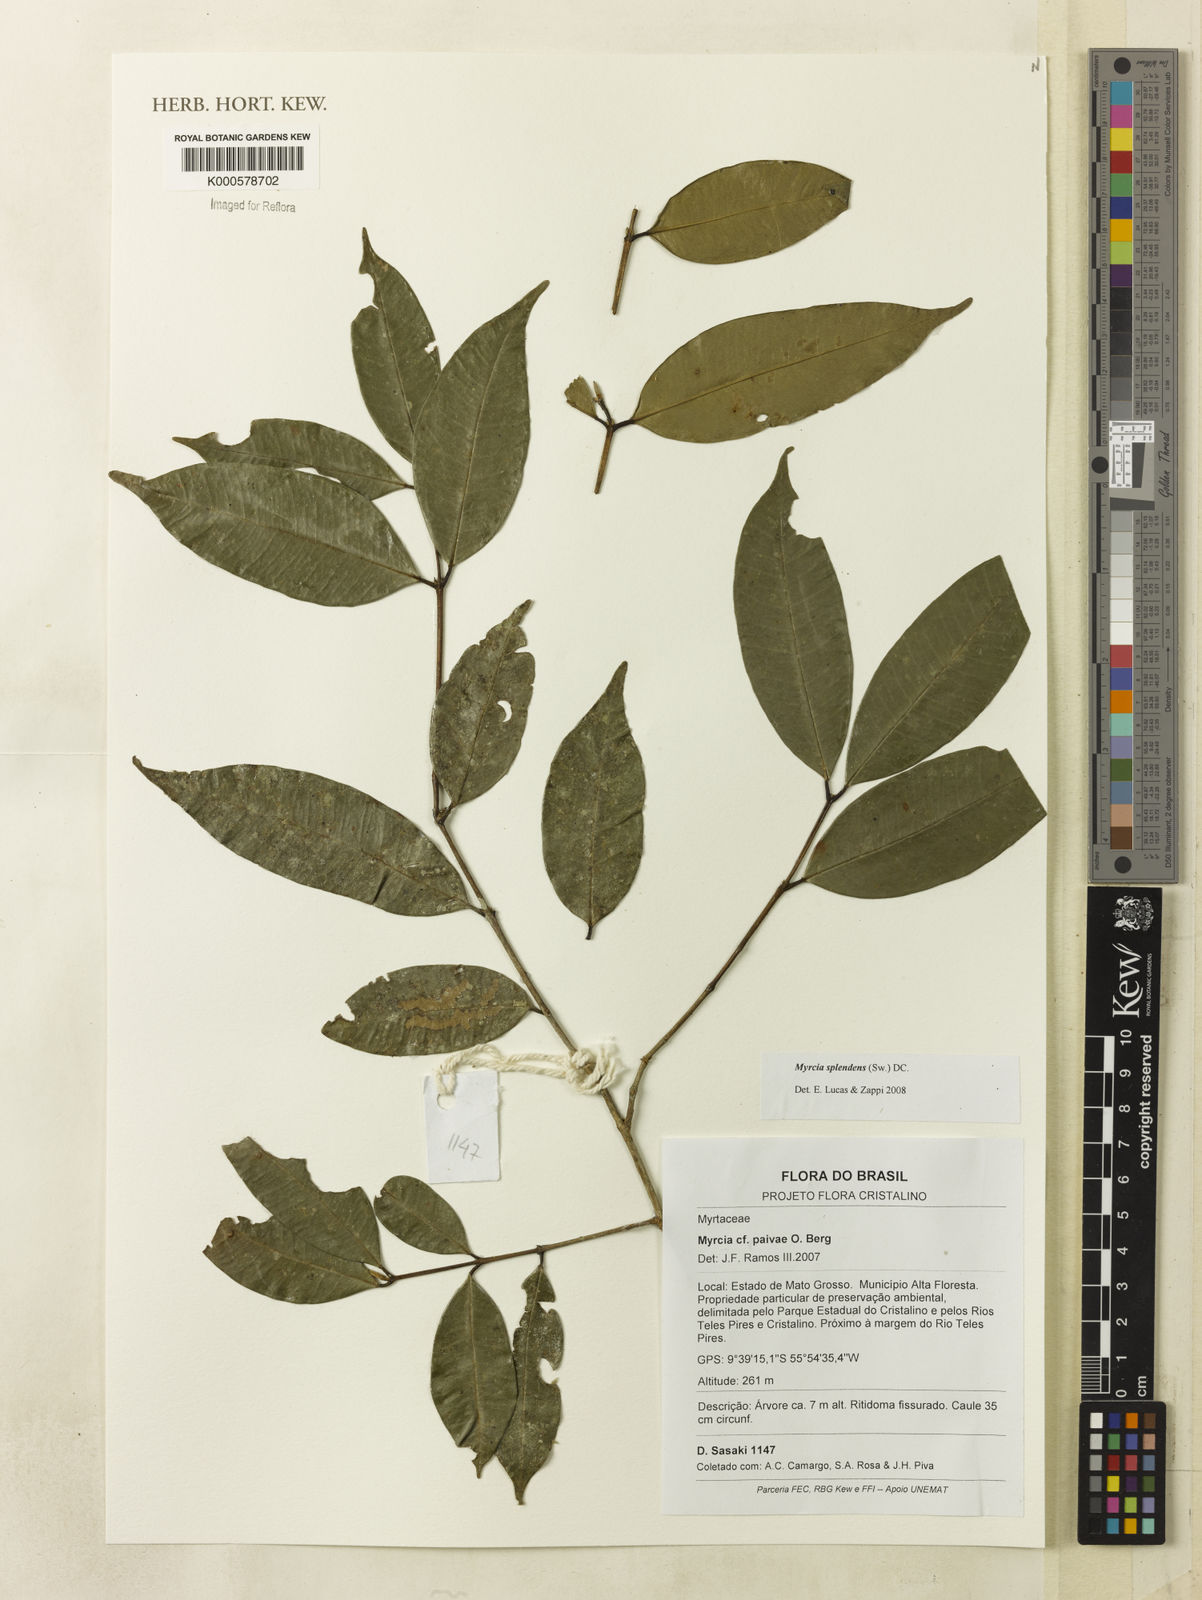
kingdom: Plantae
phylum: Tracheophyta
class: Magnoliopsida
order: Myrtales
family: Myrtaceae
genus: Myrcia
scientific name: Myrcia splendens
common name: Surinam cherry
